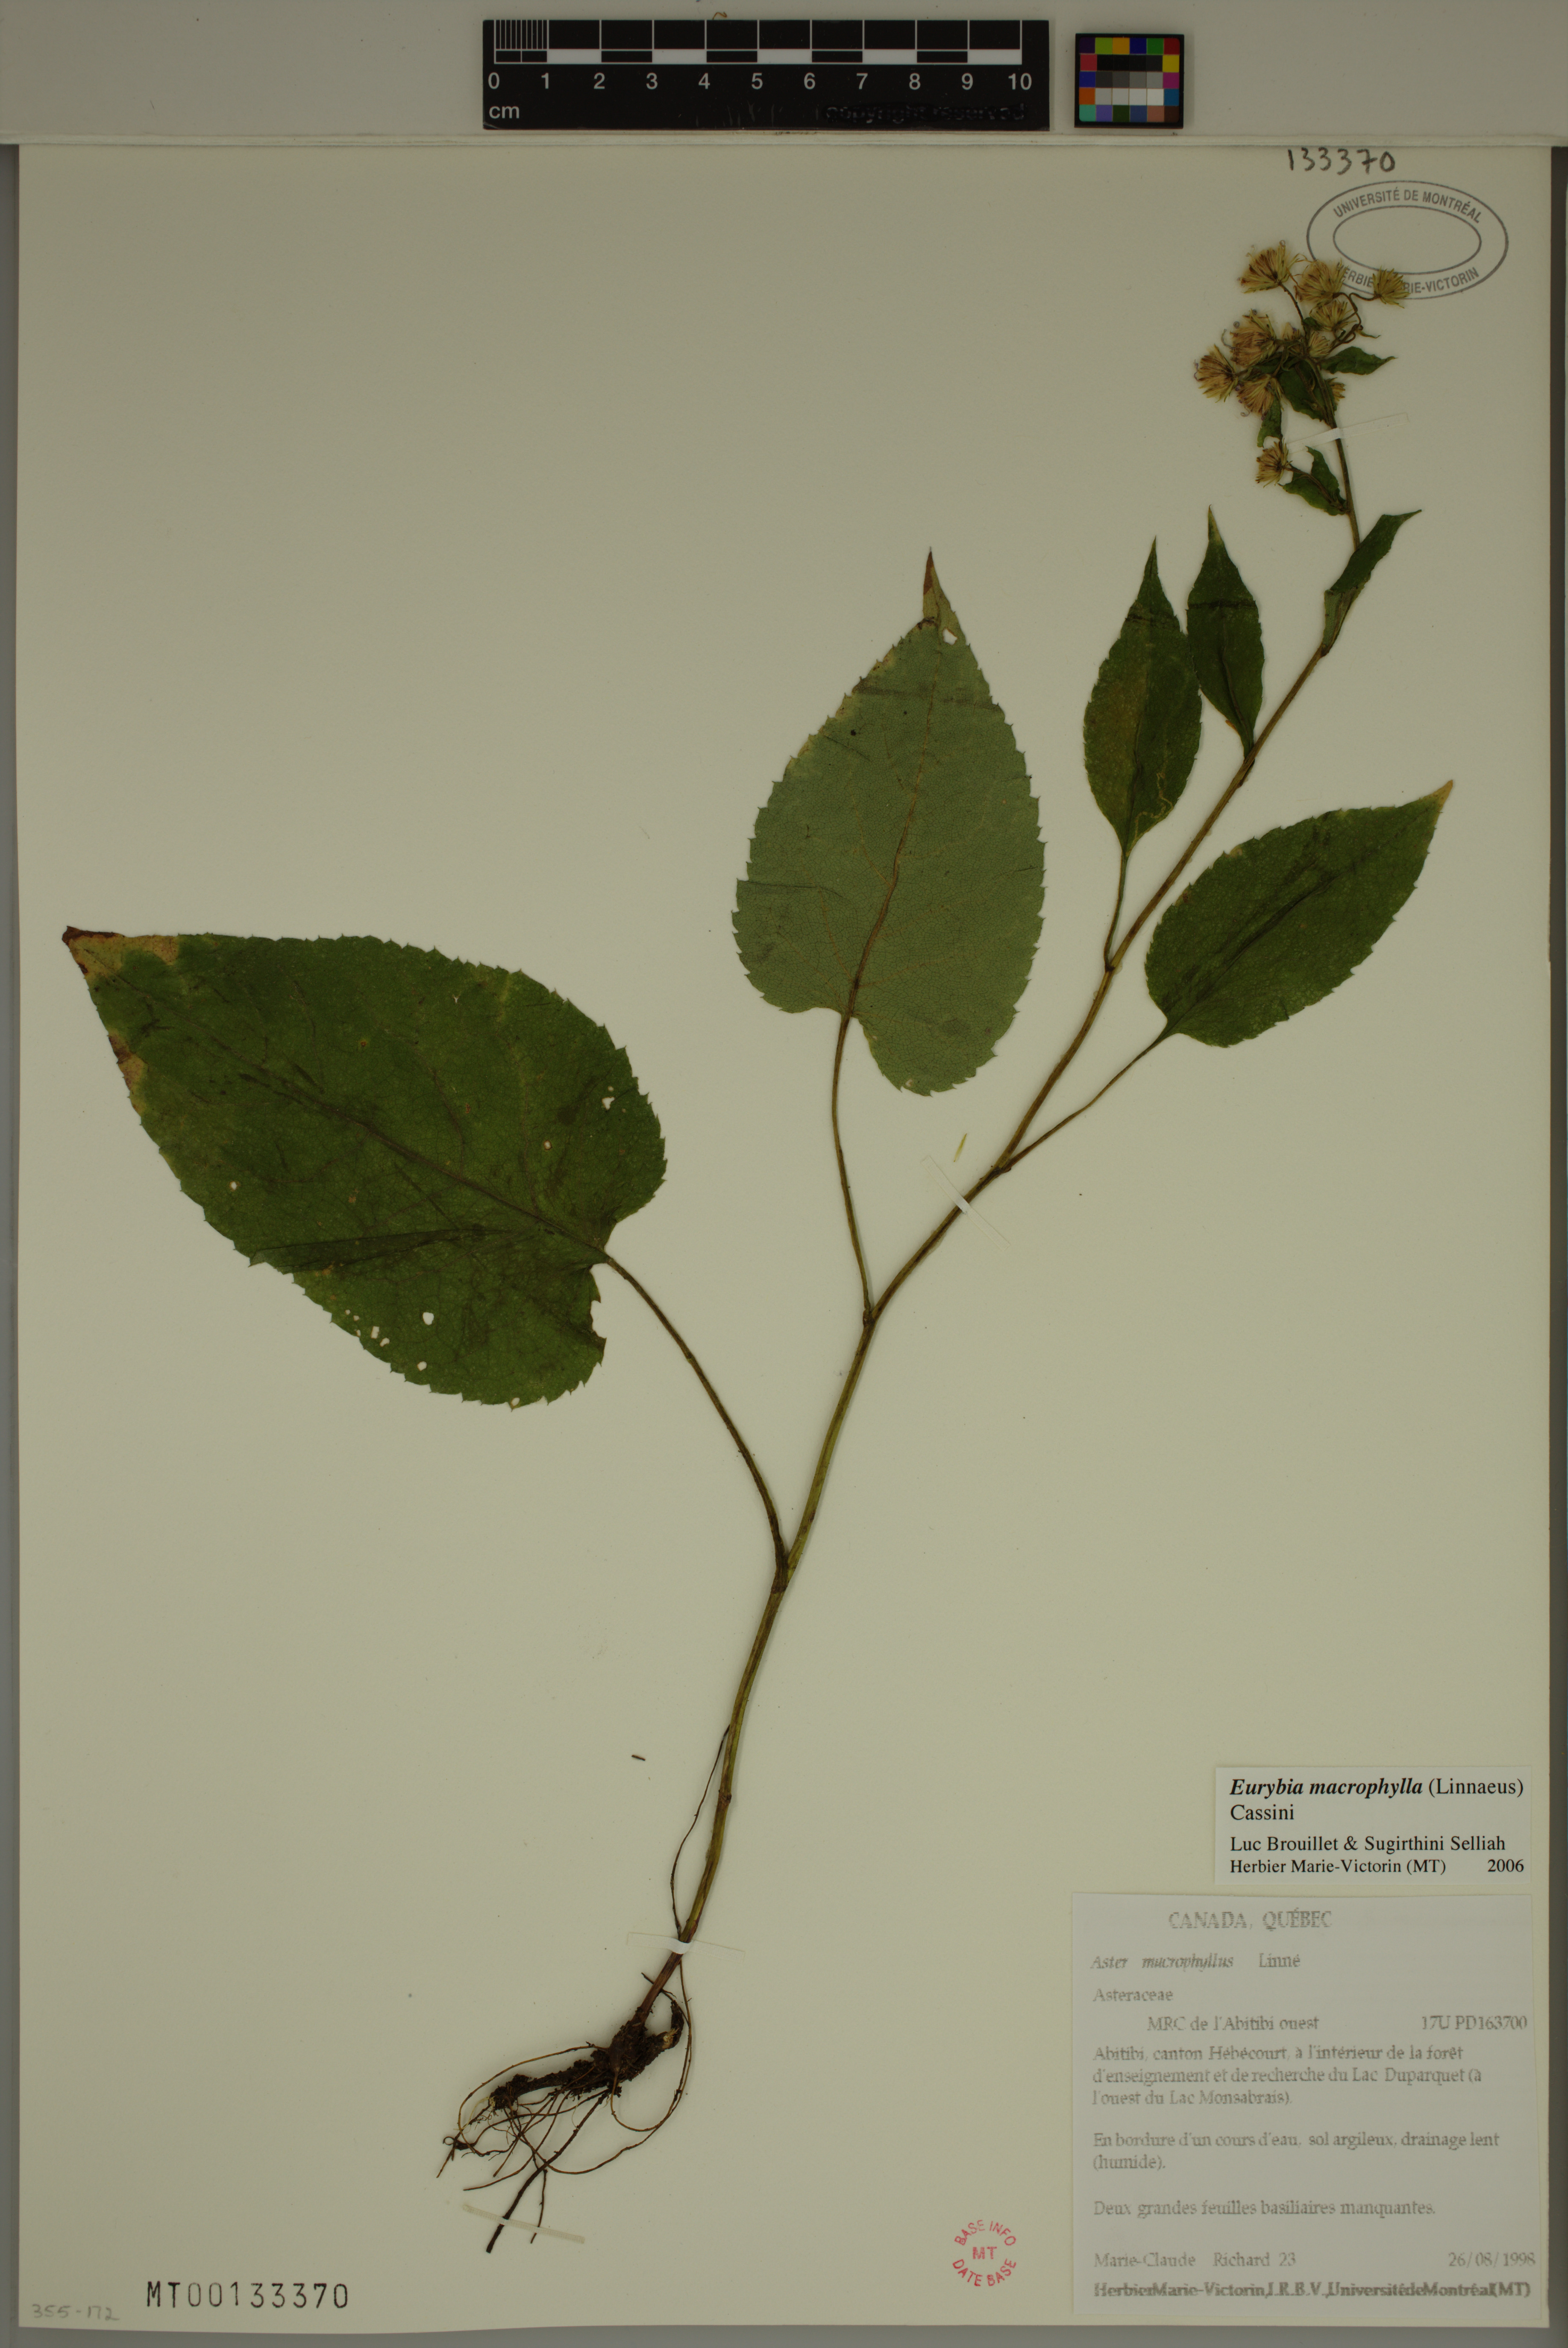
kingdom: Plantae
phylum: Tracheophyta
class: Magnoliopsida
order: Asterales
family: Asteraceae
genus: Eurybia
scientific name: Eurybia macrophylla
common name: Big-leaved aster
